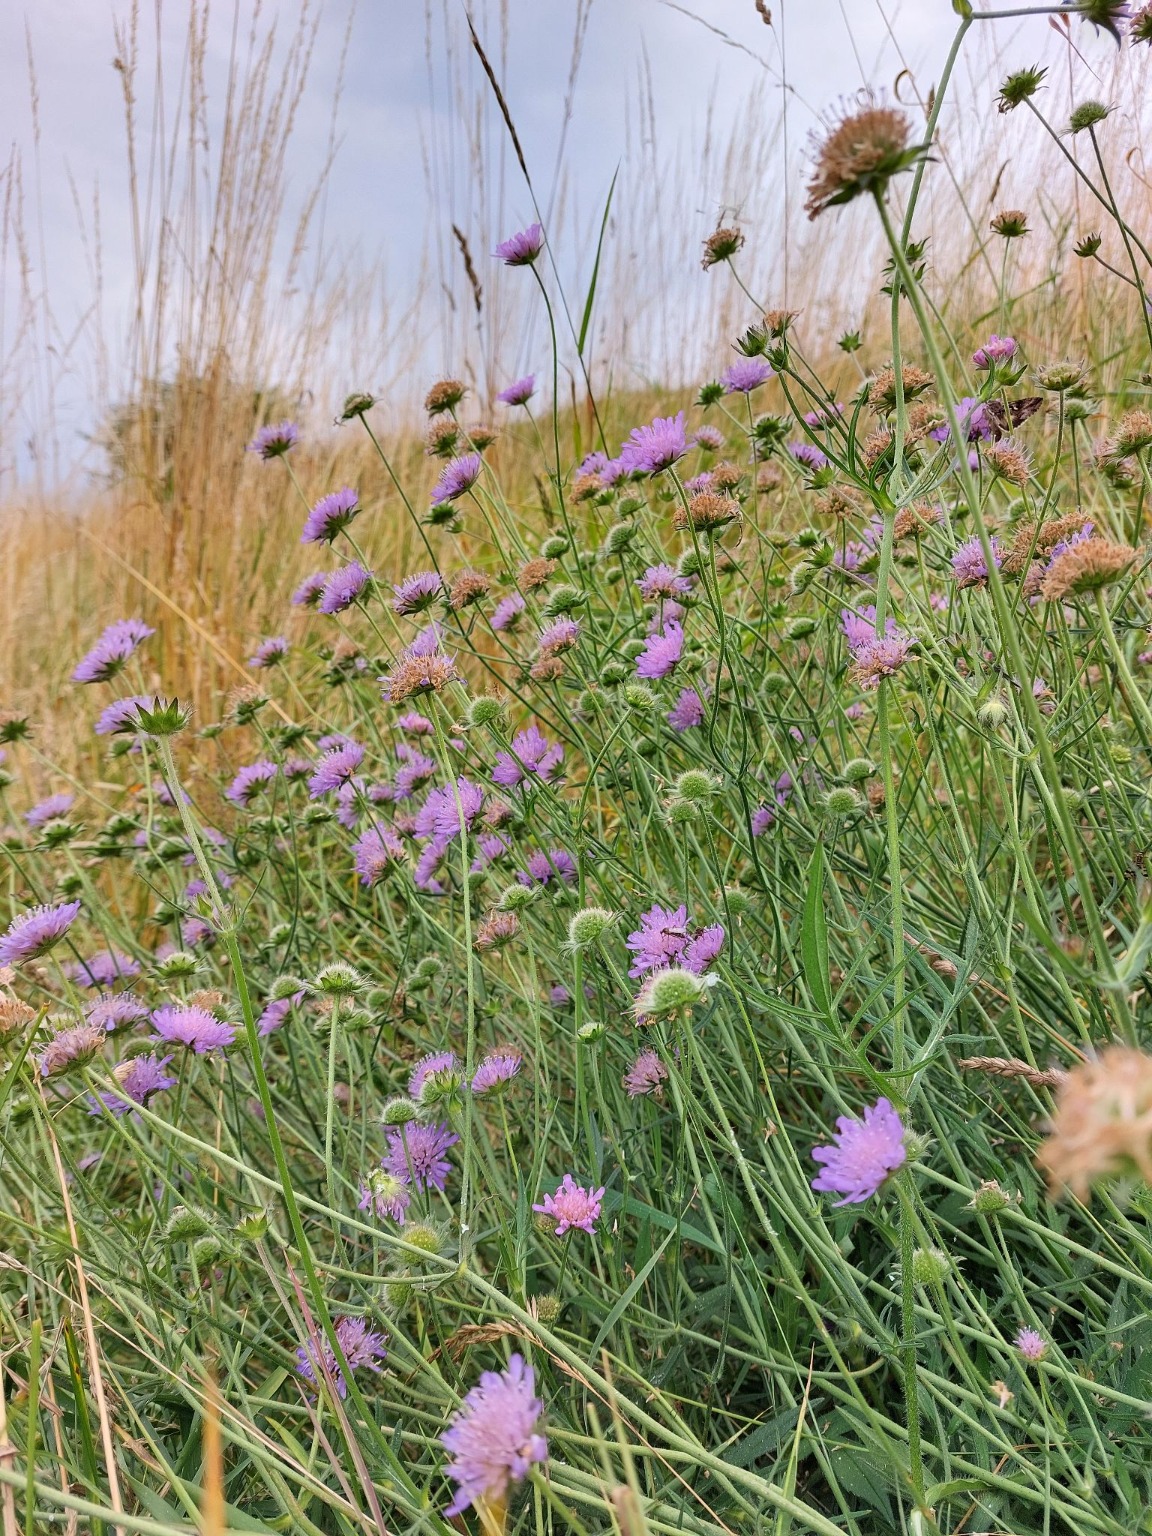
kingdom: Plantae
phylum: Tracheophyta
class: Magnoliopsida
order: Dipsacales
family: Caprifoliaceae
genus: Knautia
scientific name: Knautia arvensis
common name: Blåhat
